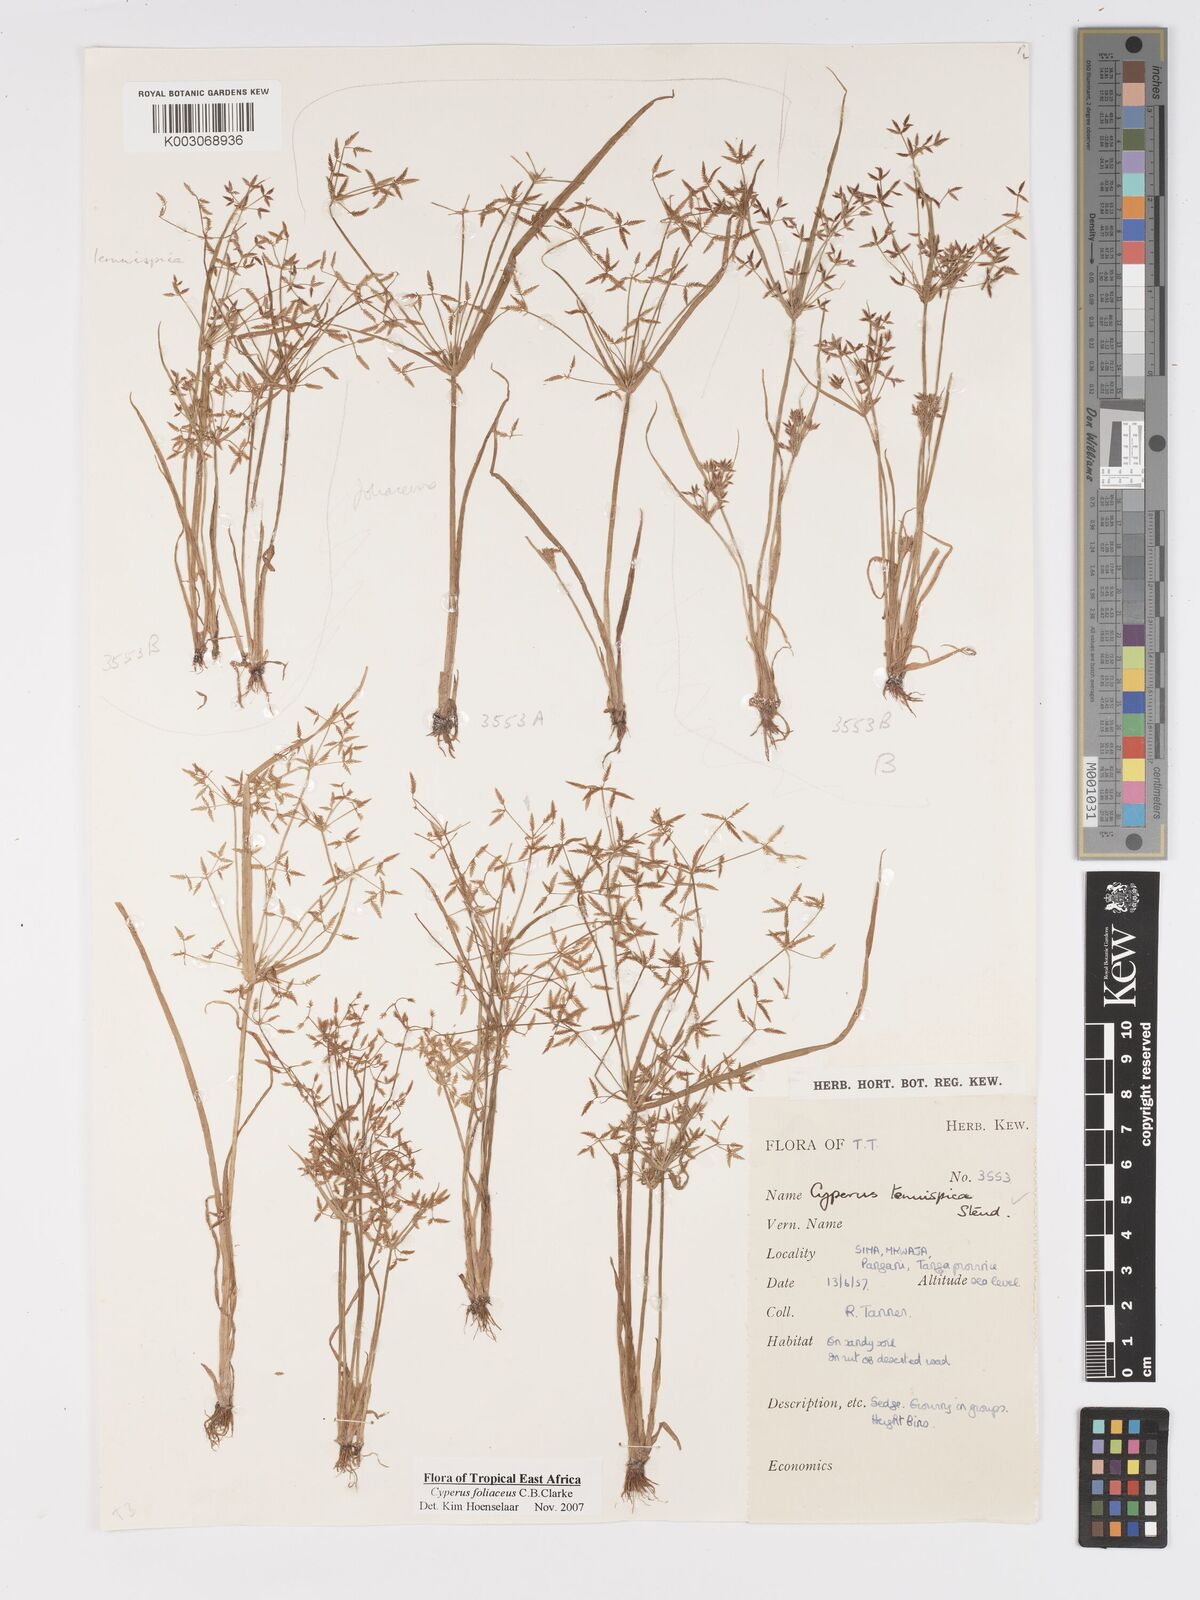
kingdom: Plantae
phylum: Tracheophyta
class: Liliopsida
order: Poales
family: Cyperaceae
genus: Cyperus
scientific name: Cyperus foliaceus
